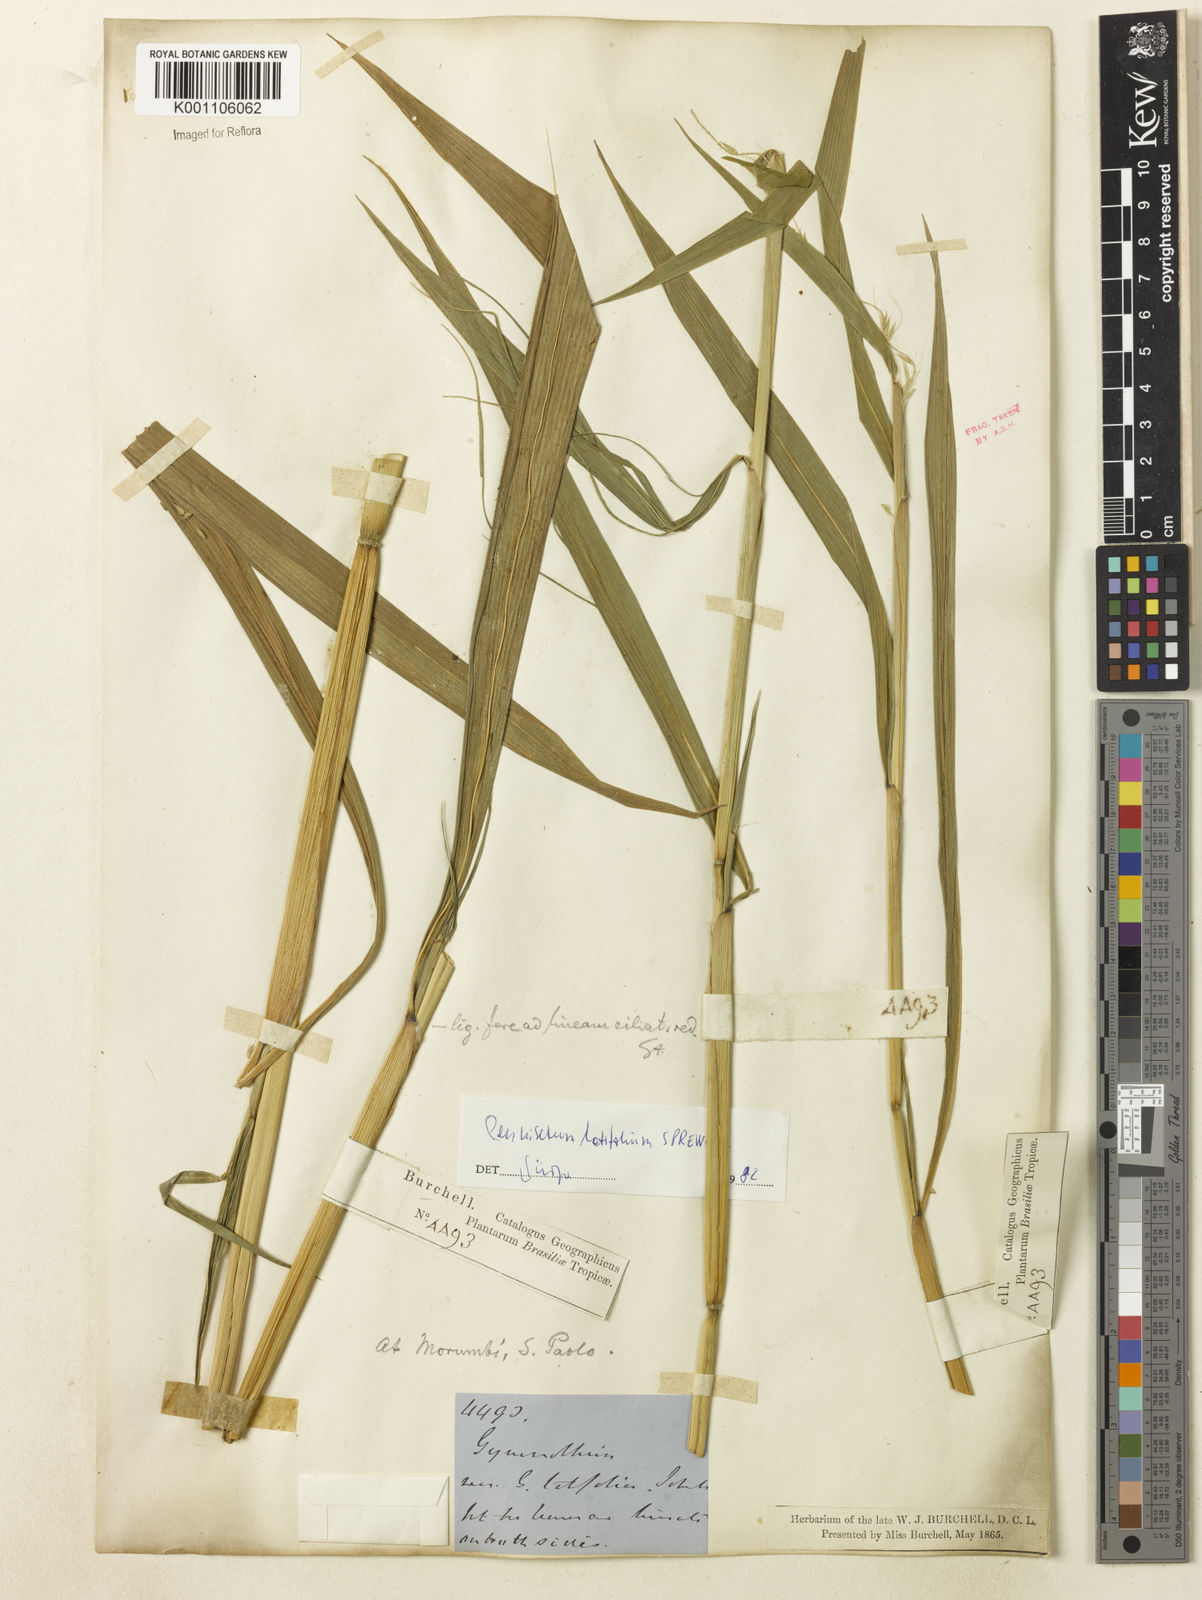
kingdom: Plantae
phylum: Tracheophyta
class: Liliopsida
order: Poales
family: Poaceae
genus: Cenchrus
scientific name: Cenchrus latifolius
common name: Sandbur
